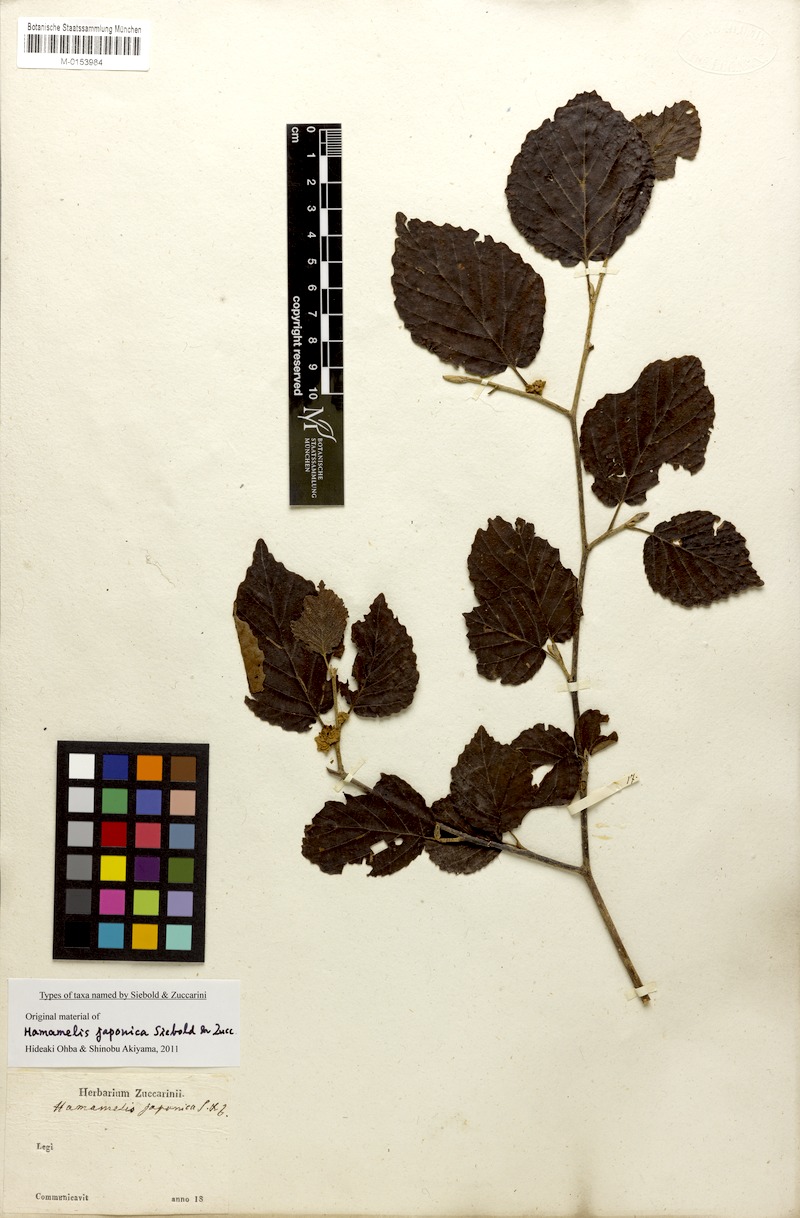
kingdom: Plantae
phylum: Tracheophyta
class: Magnoliopsida
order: Saxifragales
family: Hamamelidaceae
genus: Hamamelis
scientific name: Hamamelis japonica
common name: Japanese witch-hazel
